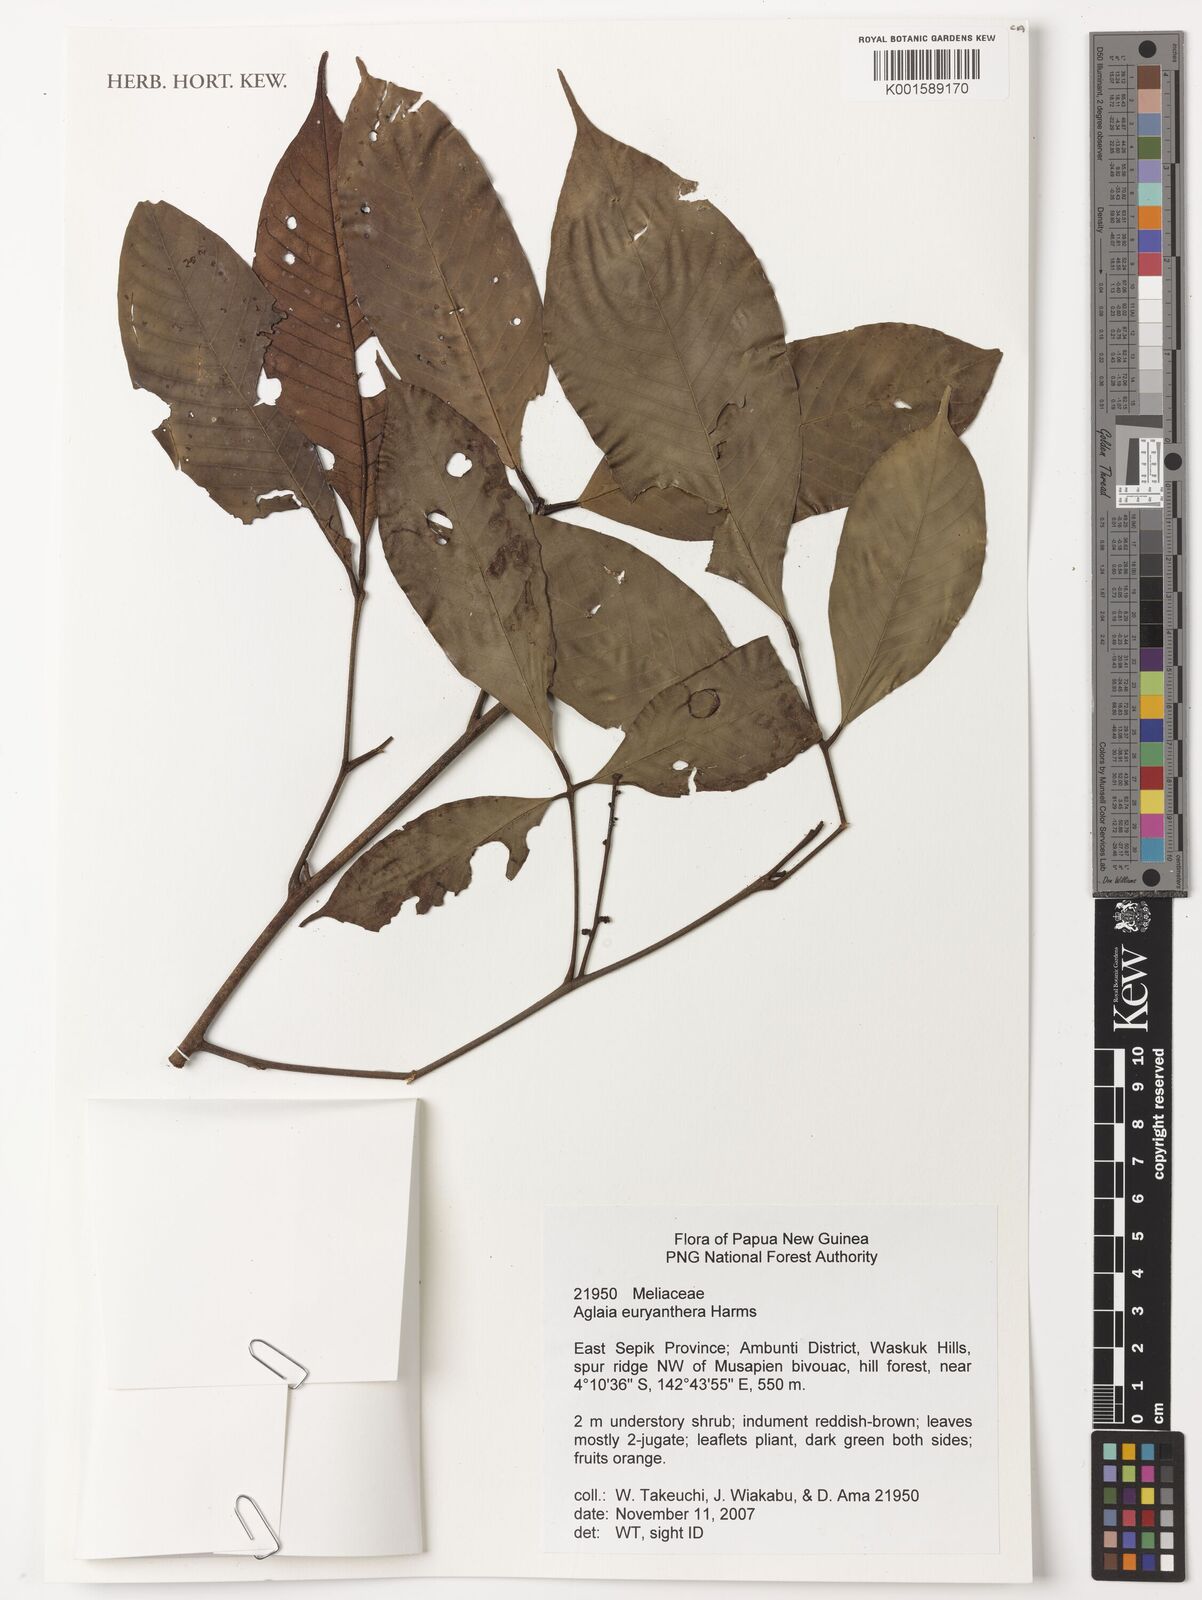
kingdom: Plantae
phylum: Tracheophyta
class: Magnoliopsida
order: Sapindales
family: Meliaceae
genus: Aglaia
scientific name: Aglaia euryanthera
